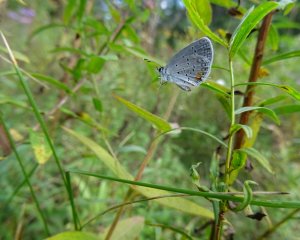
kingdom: Animalia
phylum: Arthropoda
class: Insecta
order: Lepidoptera
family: Lycaenidae
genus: Elkalyce
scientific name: Elkalyce comyntas
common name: Eastern Tailed-Blue
